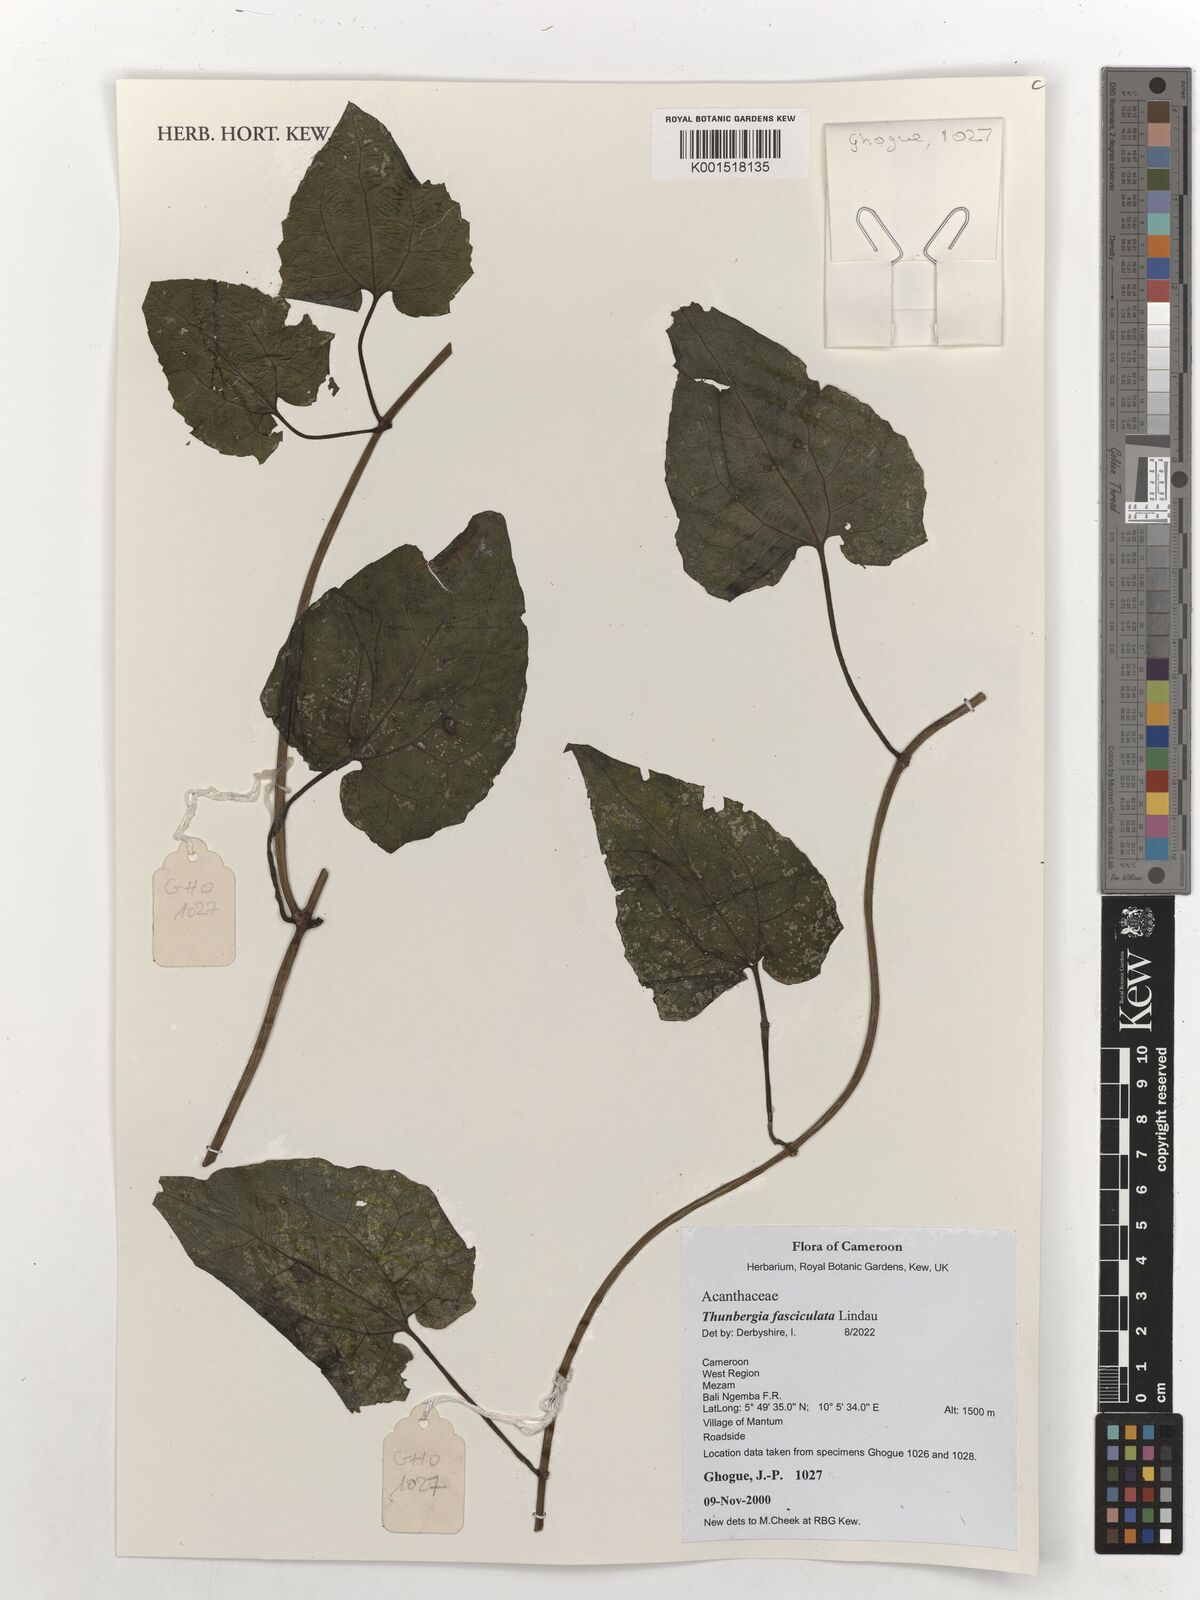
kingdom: Plantae
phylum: Tracheophyta
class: Magnoliopsida
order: Lamiales
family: Acanthaceae
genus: Thunbergia
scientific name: Thunbergia fasciculata
